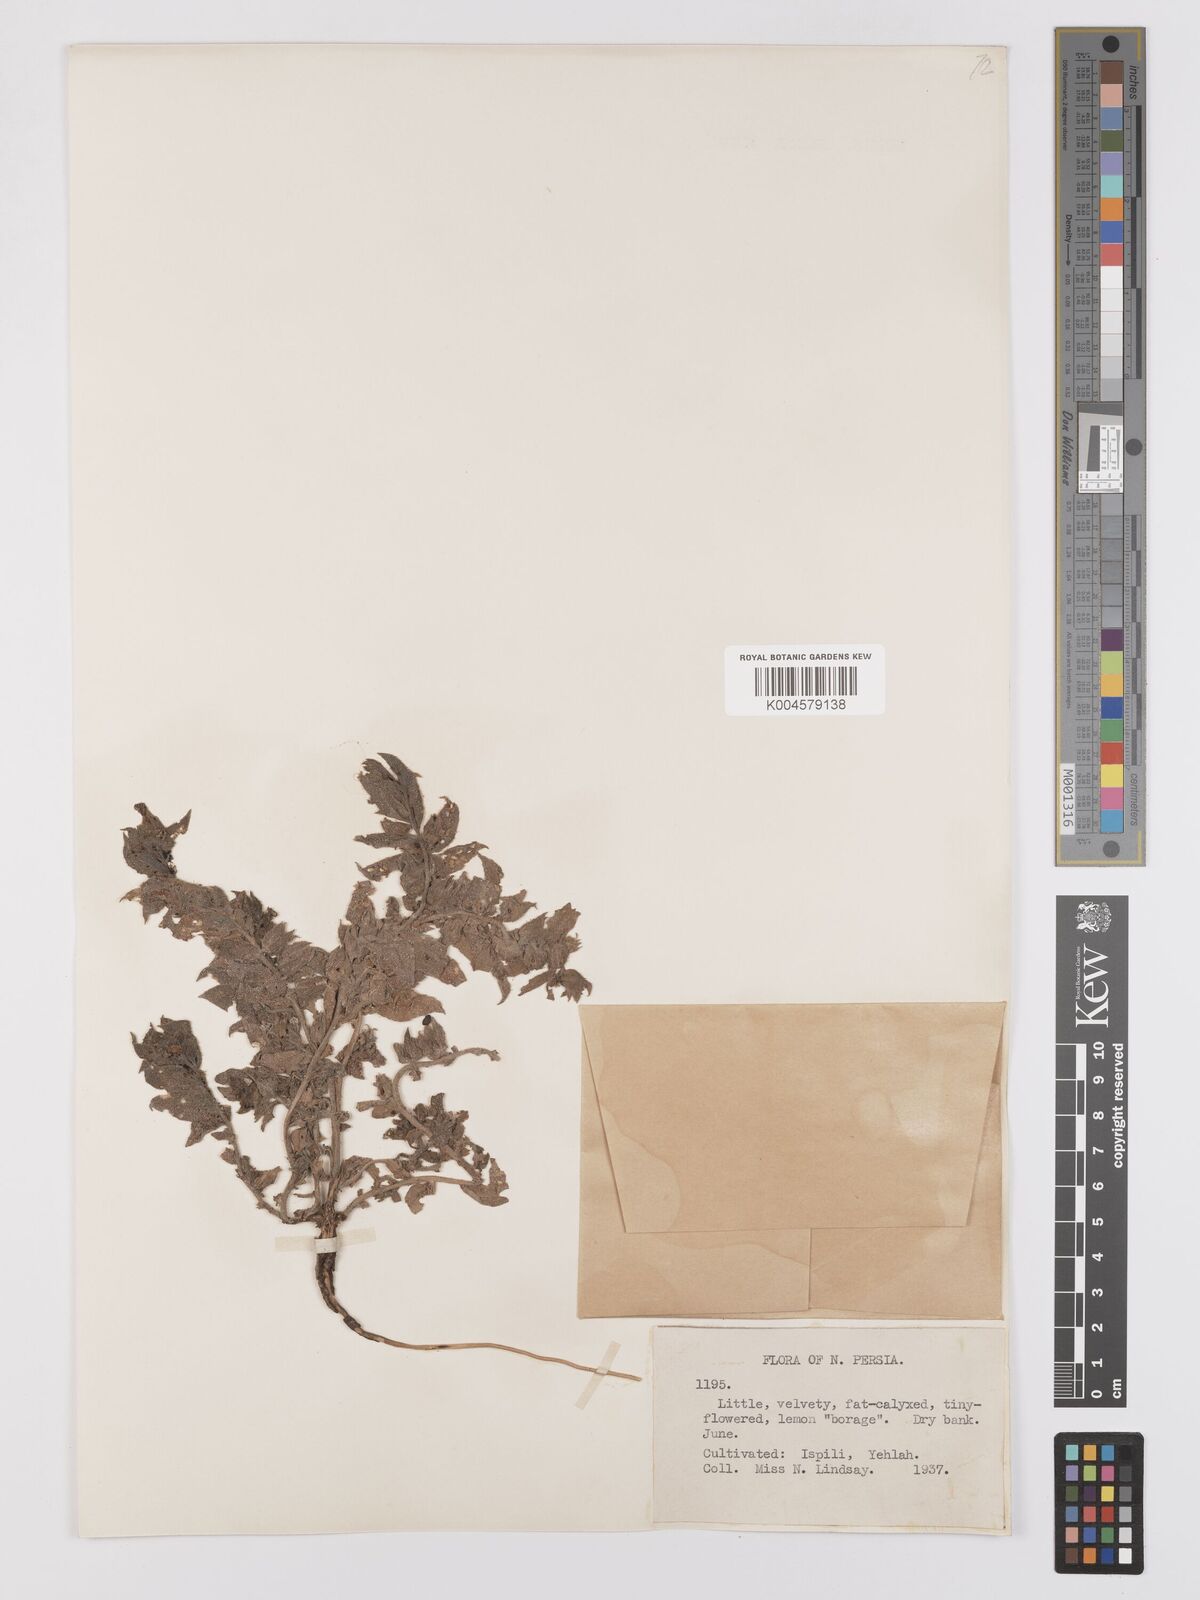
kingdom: Plantae
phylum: Tracheophyta
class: Magnoliopsida
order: Boraginales
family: Boraginaceae
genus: Nonea
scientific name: Nonea
